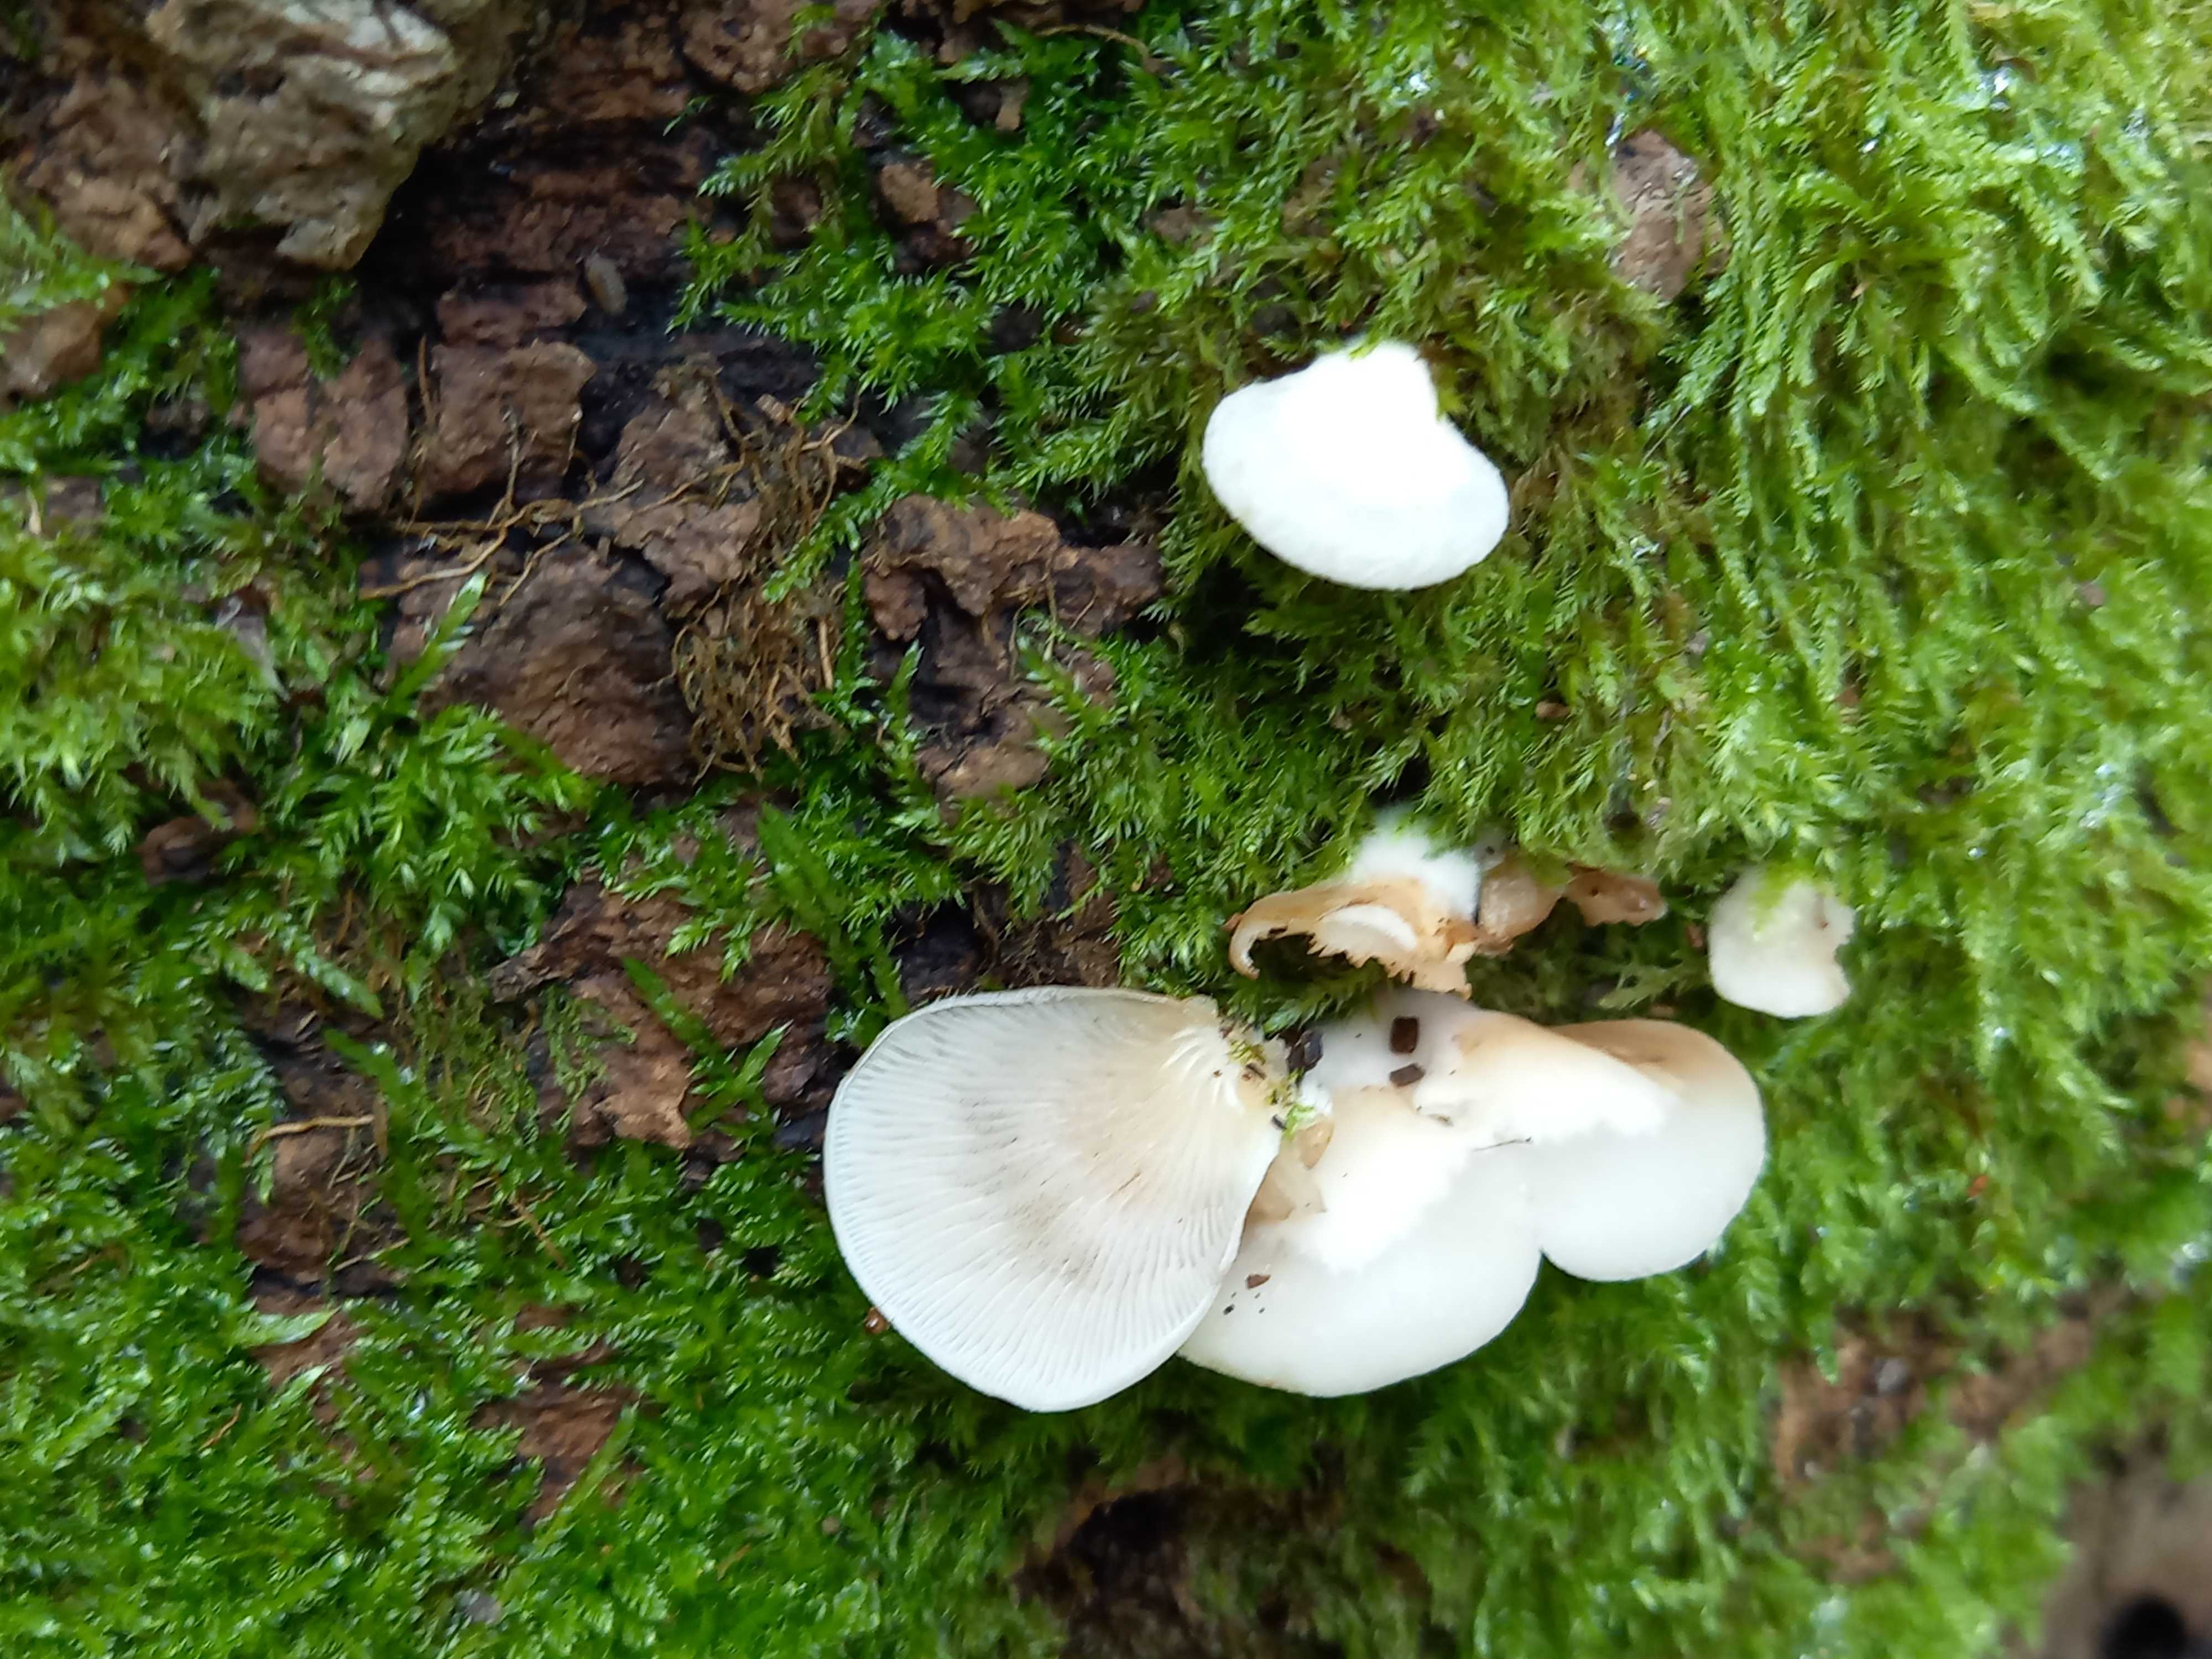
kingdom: Fungi
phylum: Basidiomycota
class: Agaricomycetes
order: Agaricales
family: Crepidotaceae
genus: Crepidotus
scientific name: Crepidotus mollis
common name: blød muslingesvamp
